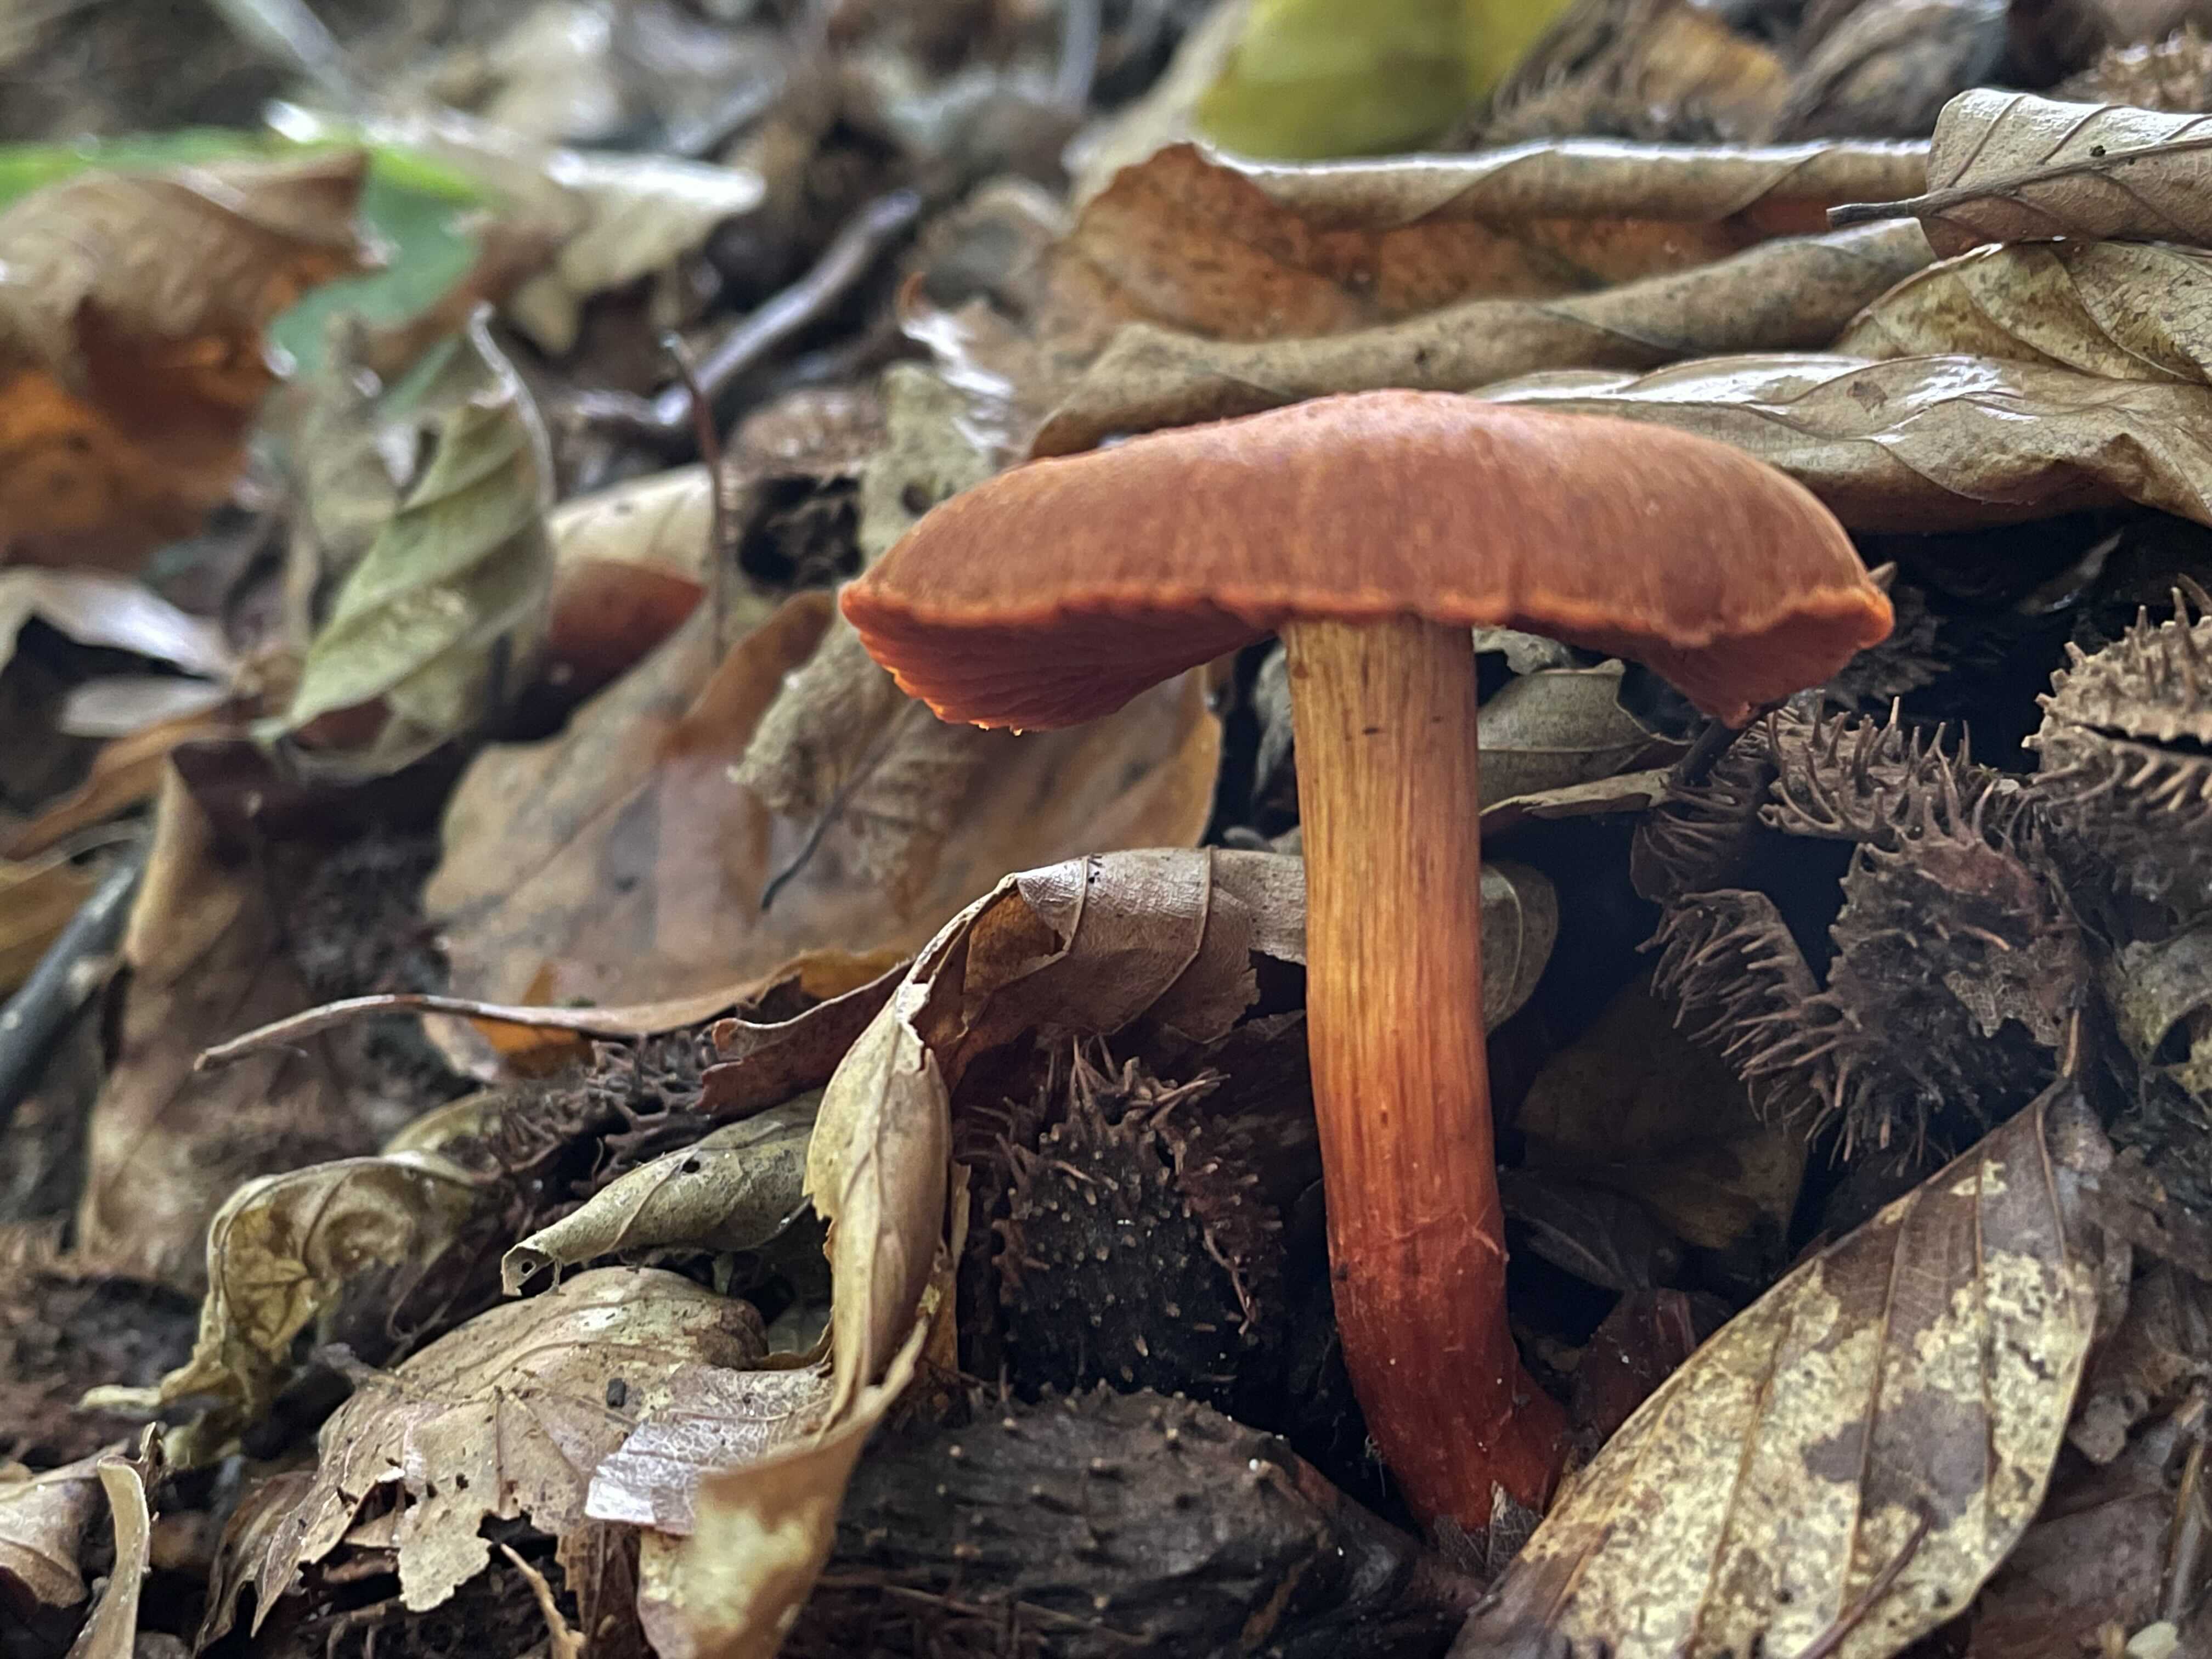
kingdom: Fungi
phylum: Basidiomycota
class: Agaricomycetes
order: Agaricales
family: Cortinariaceae
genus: Cortinarius
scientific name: Cortinarius cinnabarinus
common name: cinnober-slørhat
